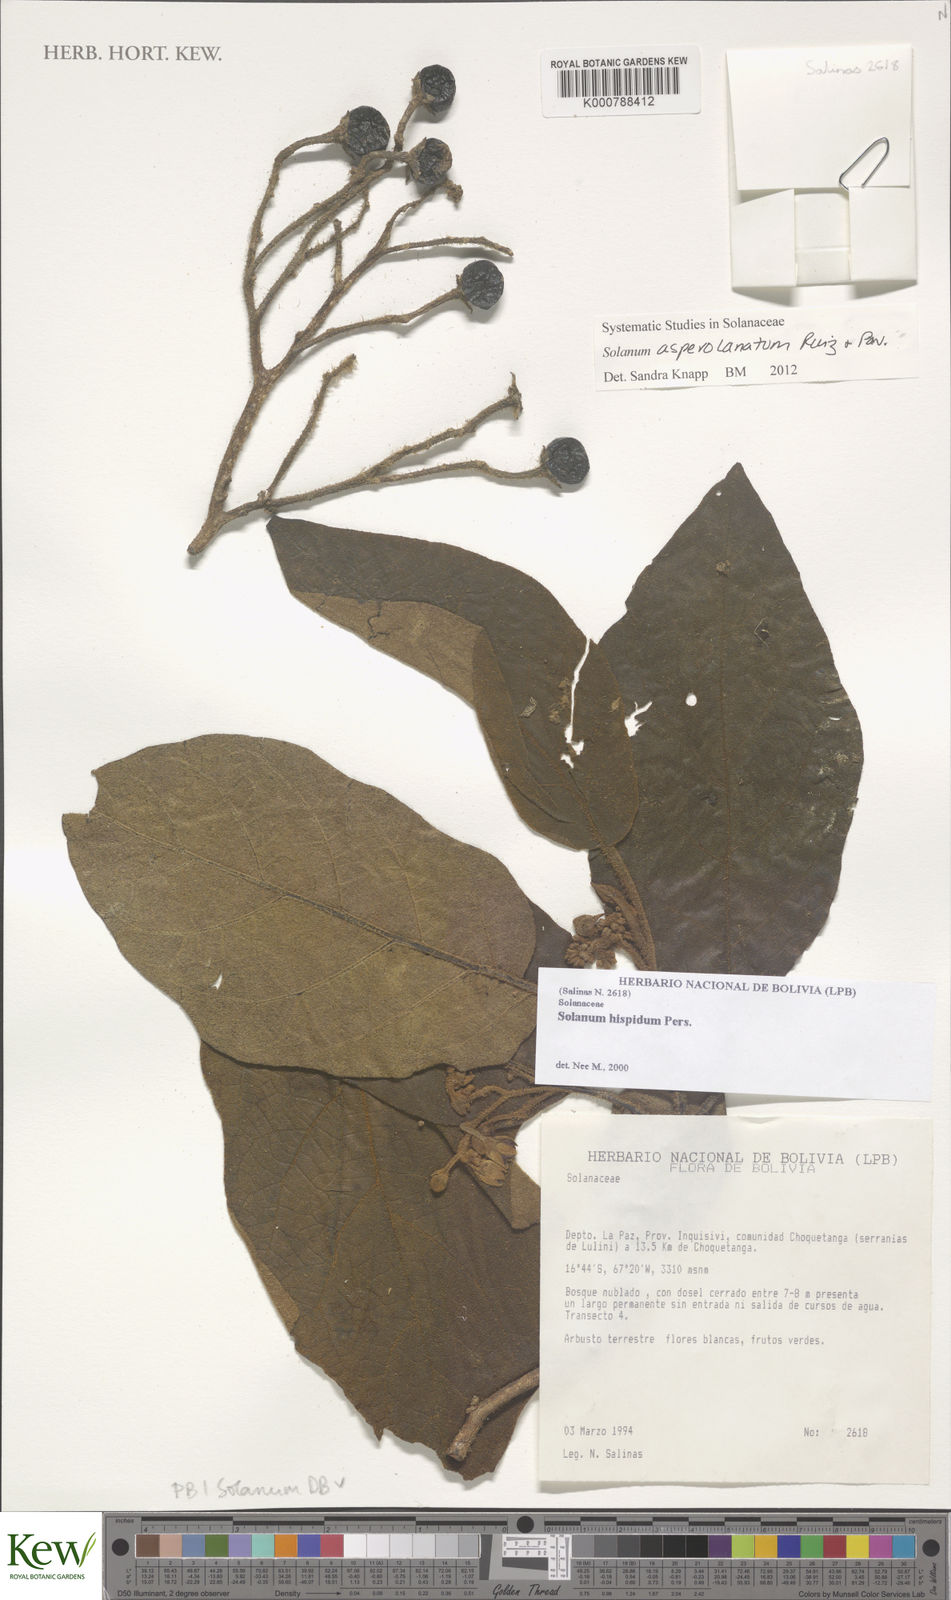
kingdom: Plantae
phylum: Tracheophyta
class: Magnoliopsida
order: Solanales
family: Solanaceae
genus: Solanum
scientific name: Solanum asperolanatum
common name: Devil's-fig
